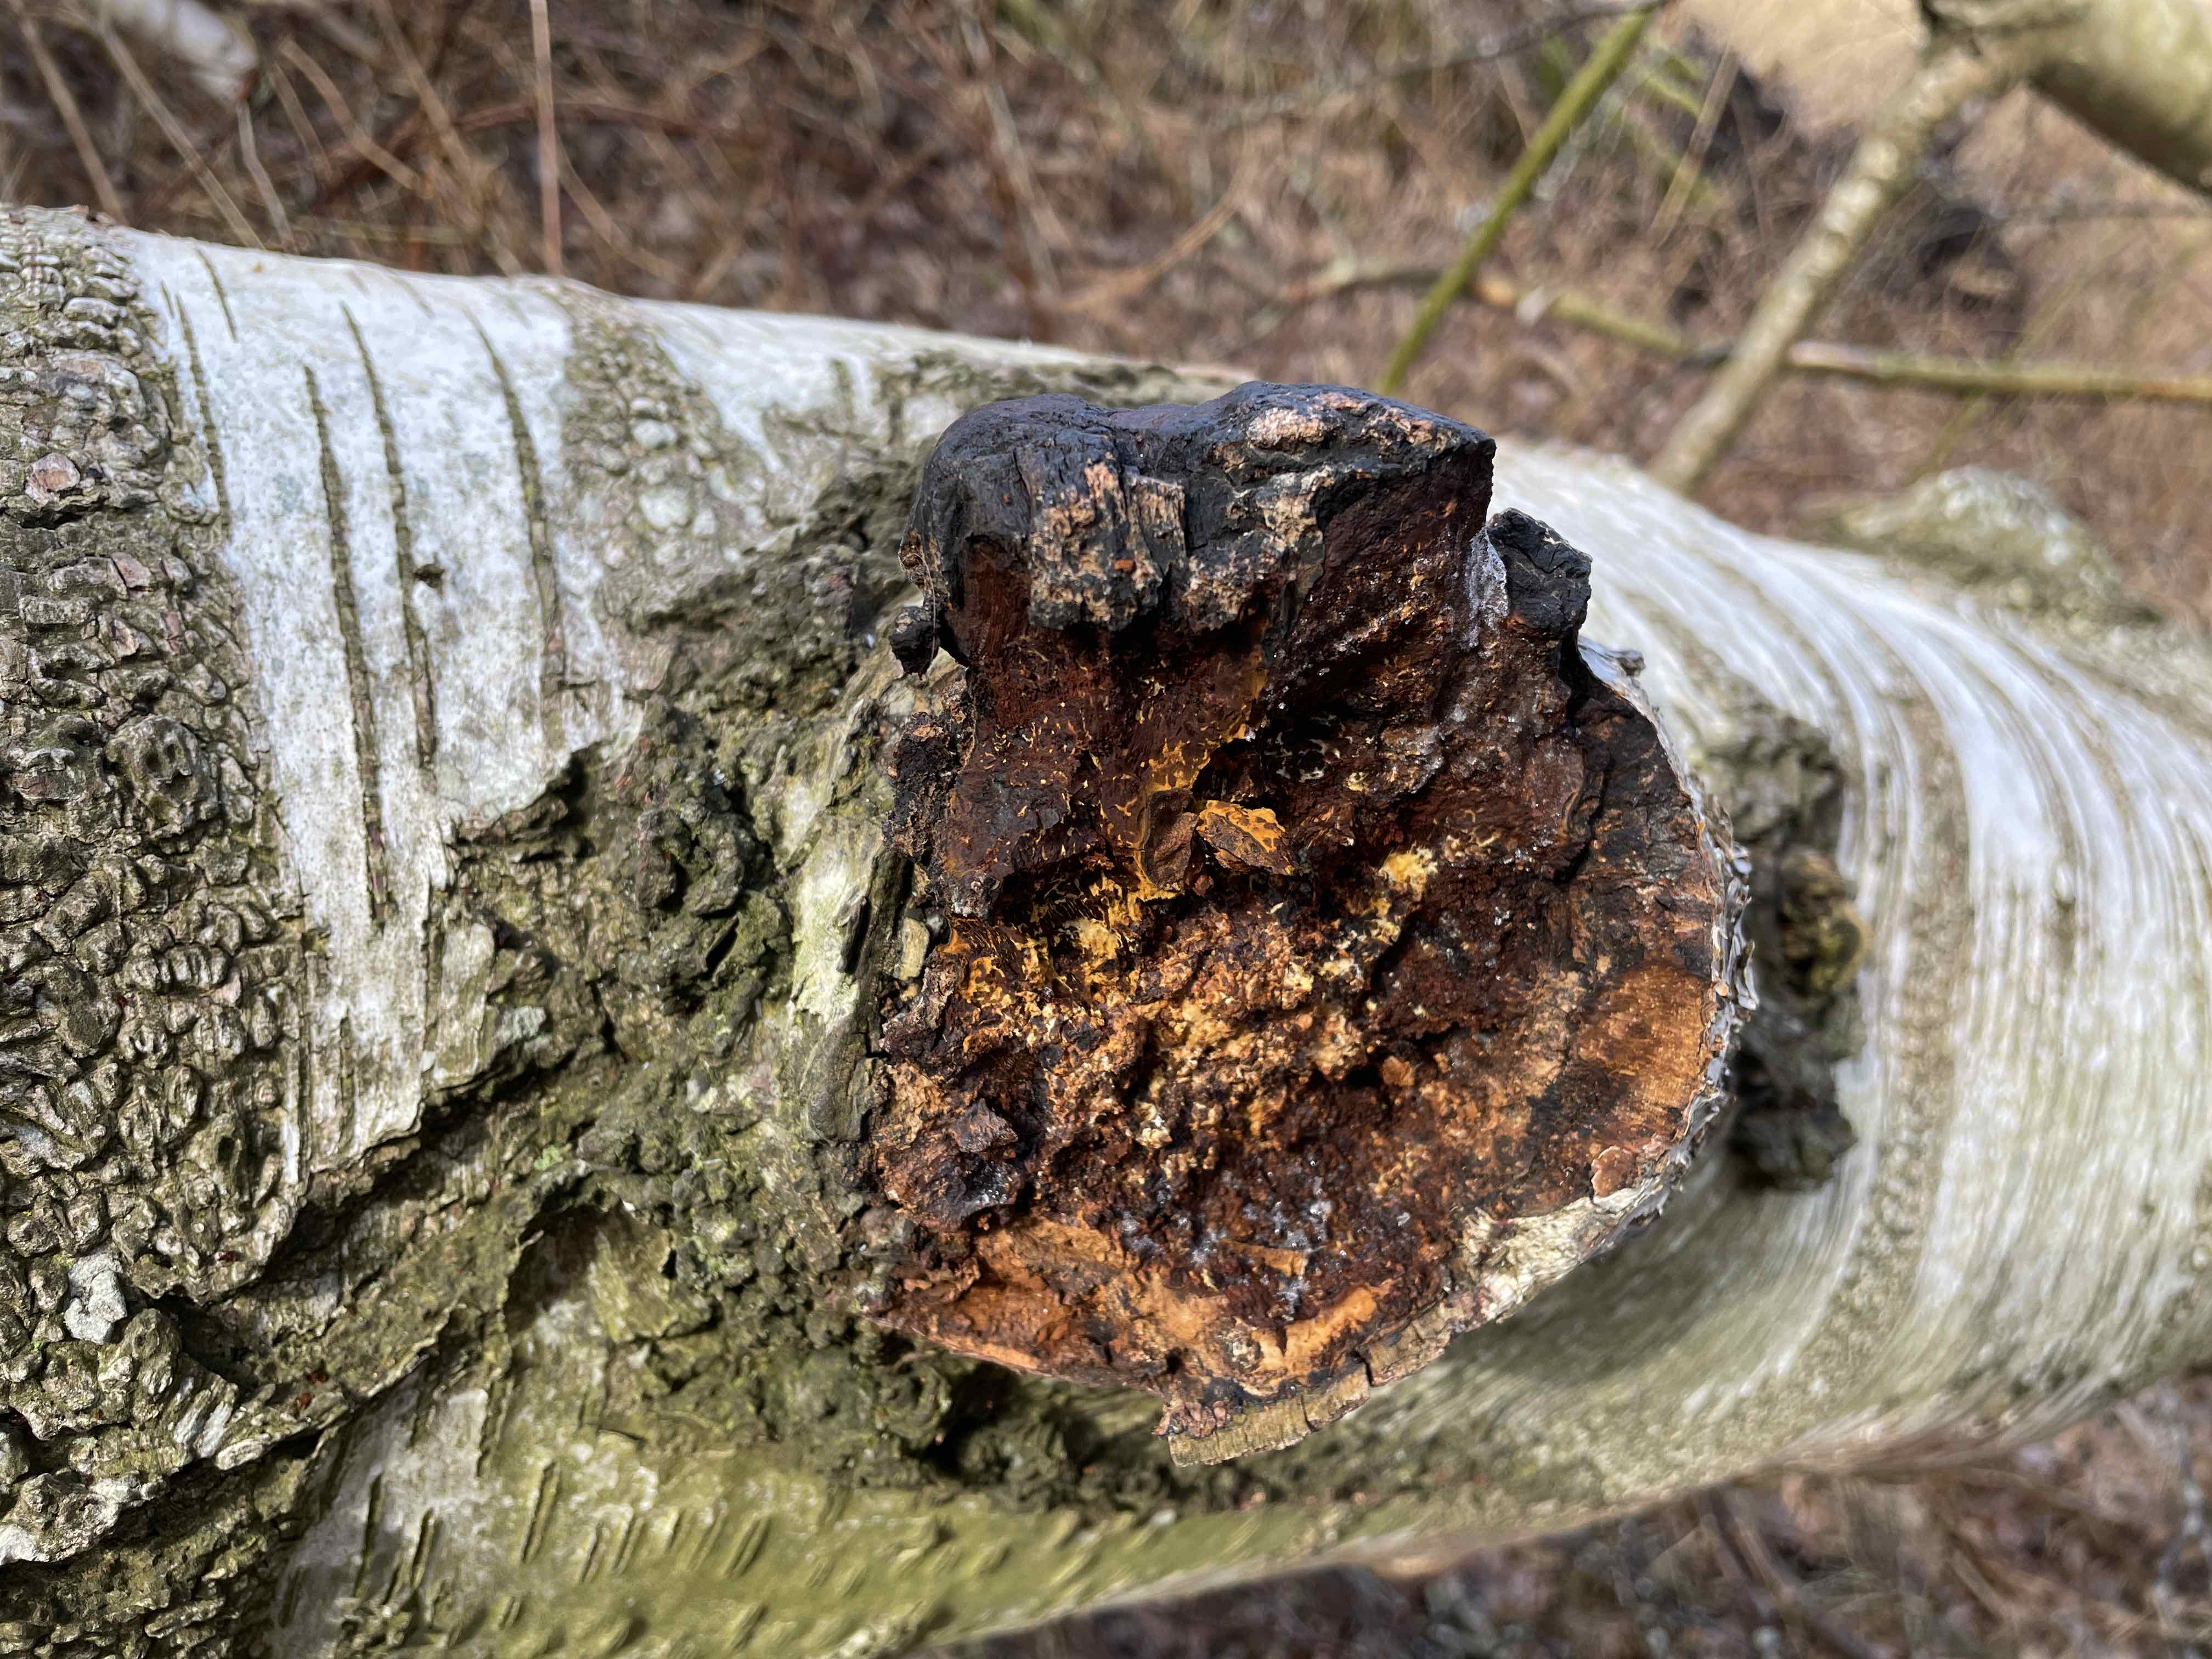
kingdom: Fungi
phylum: Basidiomycota
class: Agaricomycetes
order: Hymenochaetales
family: Hymenochaetaceae
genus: Inonotus
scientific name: Inonotus obliquus
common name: birke-spejlporesvamp
